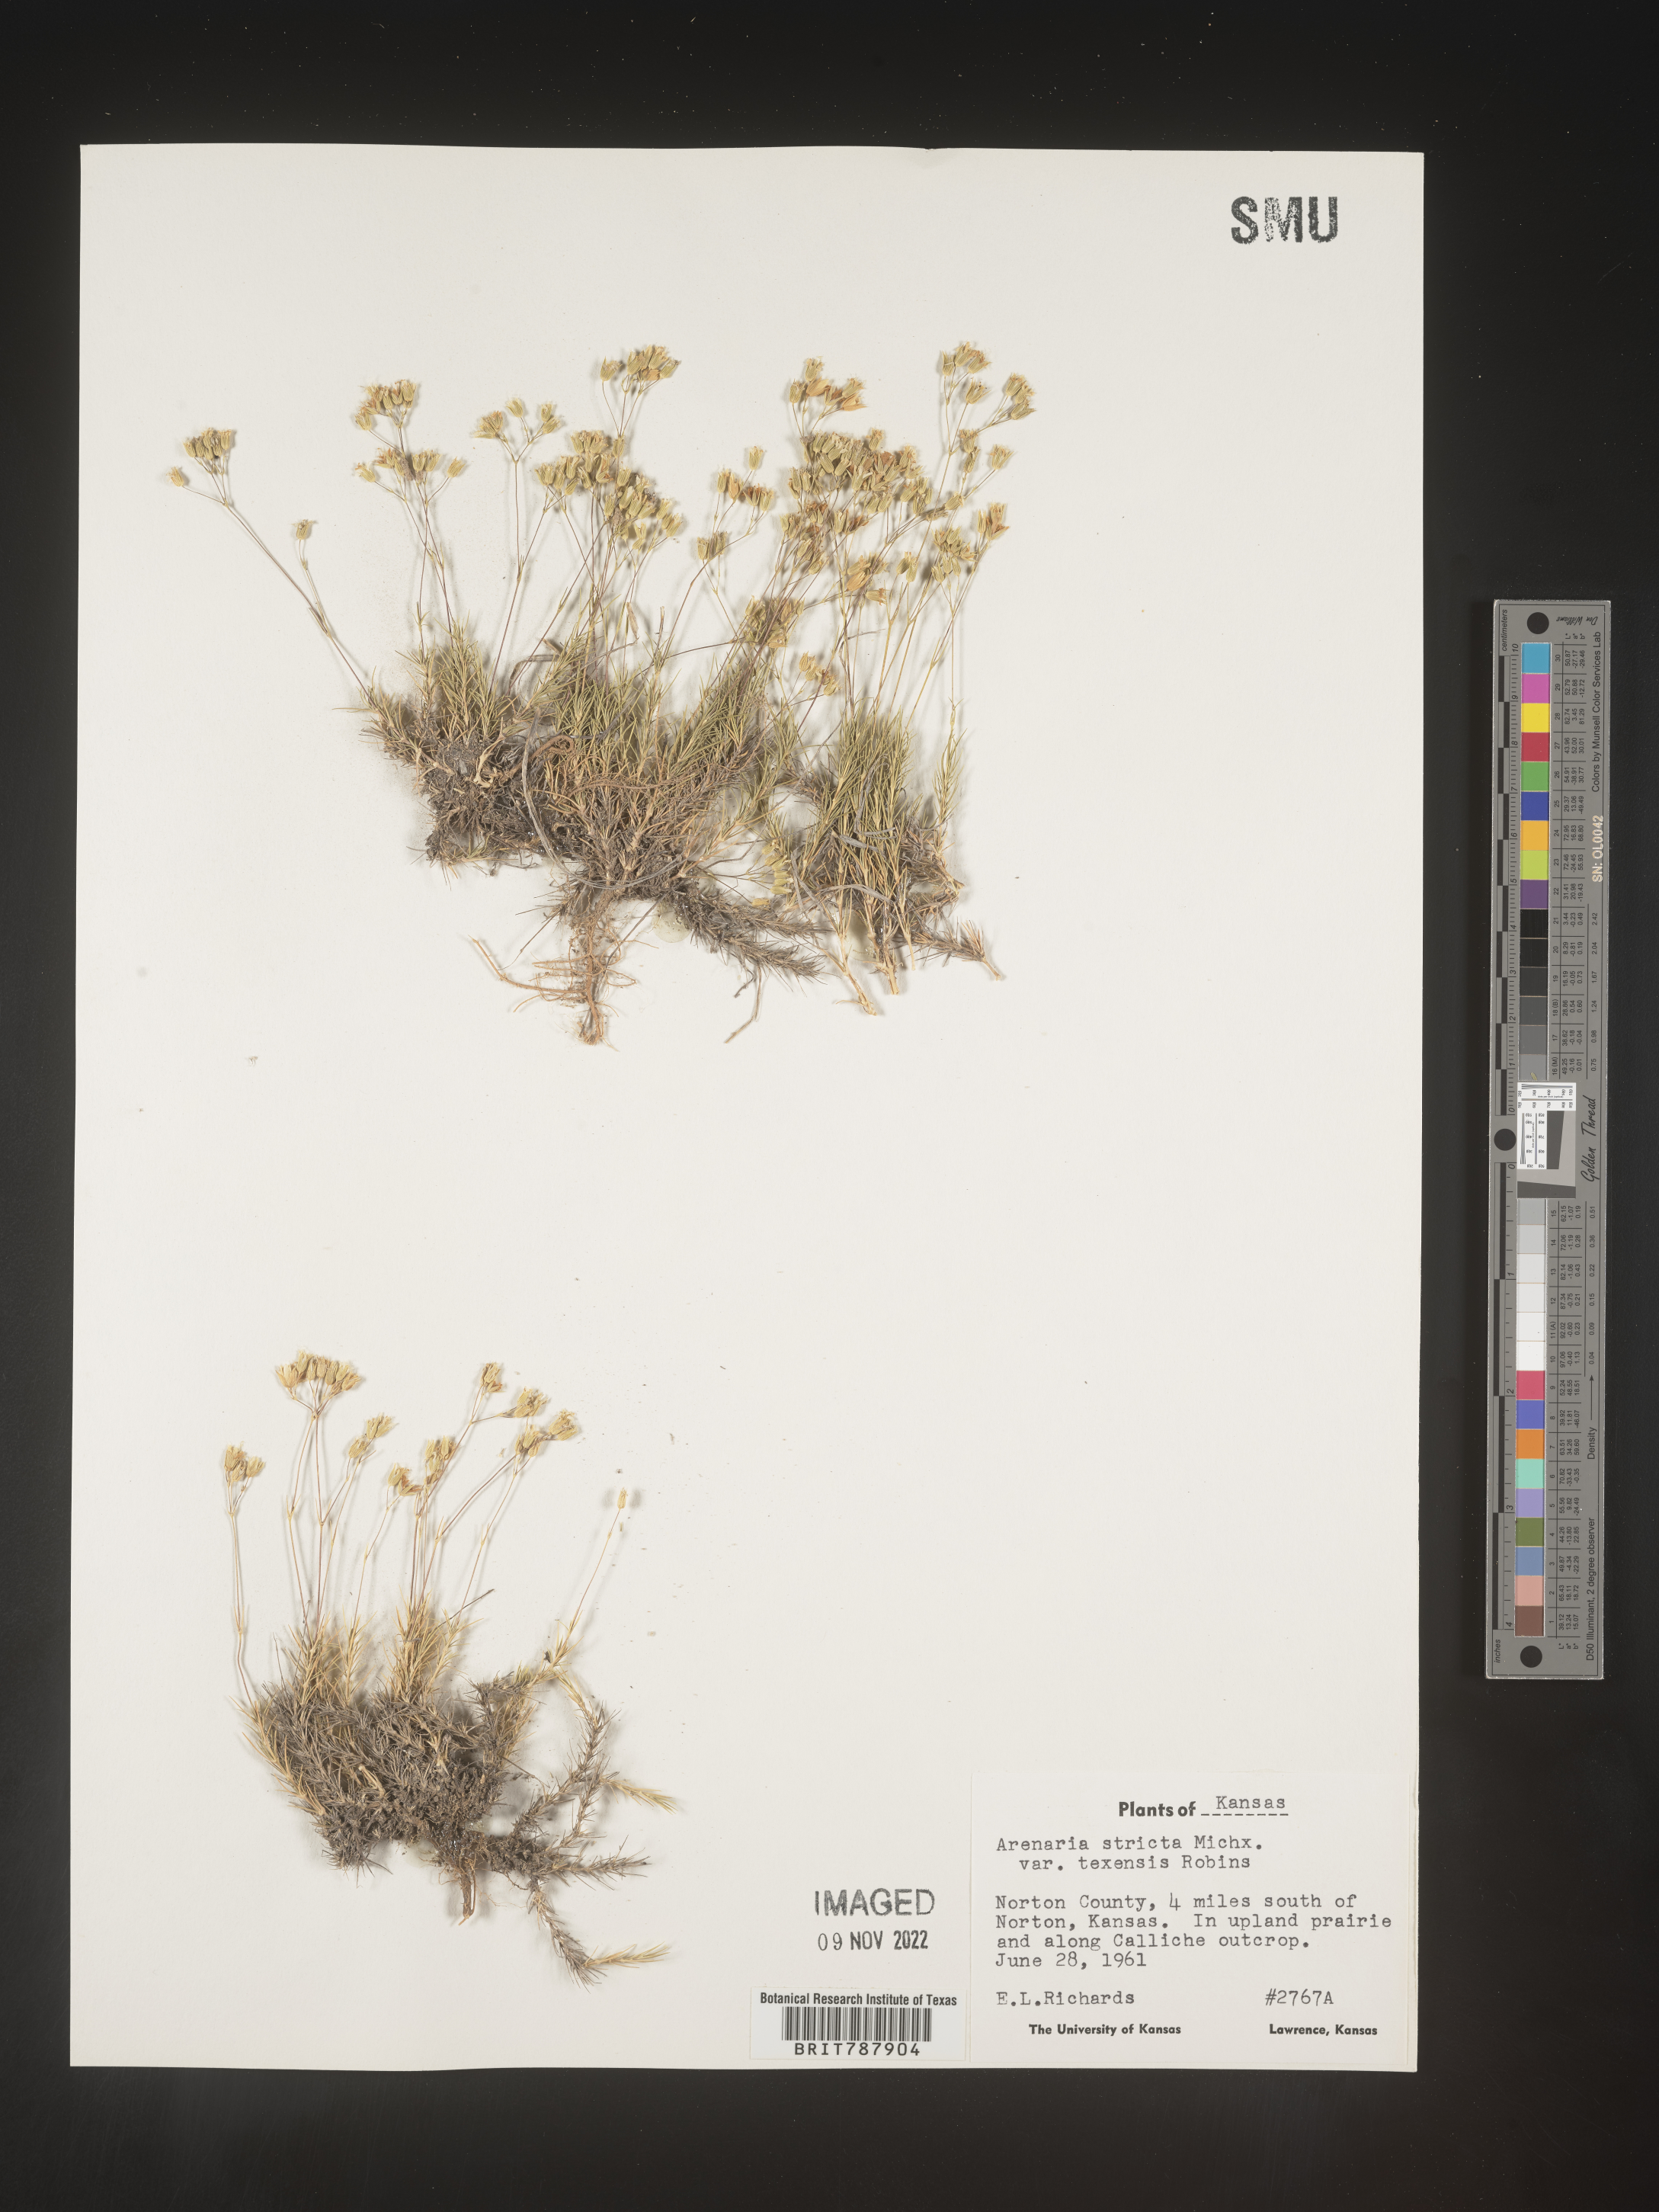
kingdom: Plantae
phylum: Tracheophyta
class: Magnoliopsida
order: Caryophyllales
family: Caryophyllaceae
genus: Sabulina
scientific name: Sabulina michauxii
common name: Michaux's stitchwort
